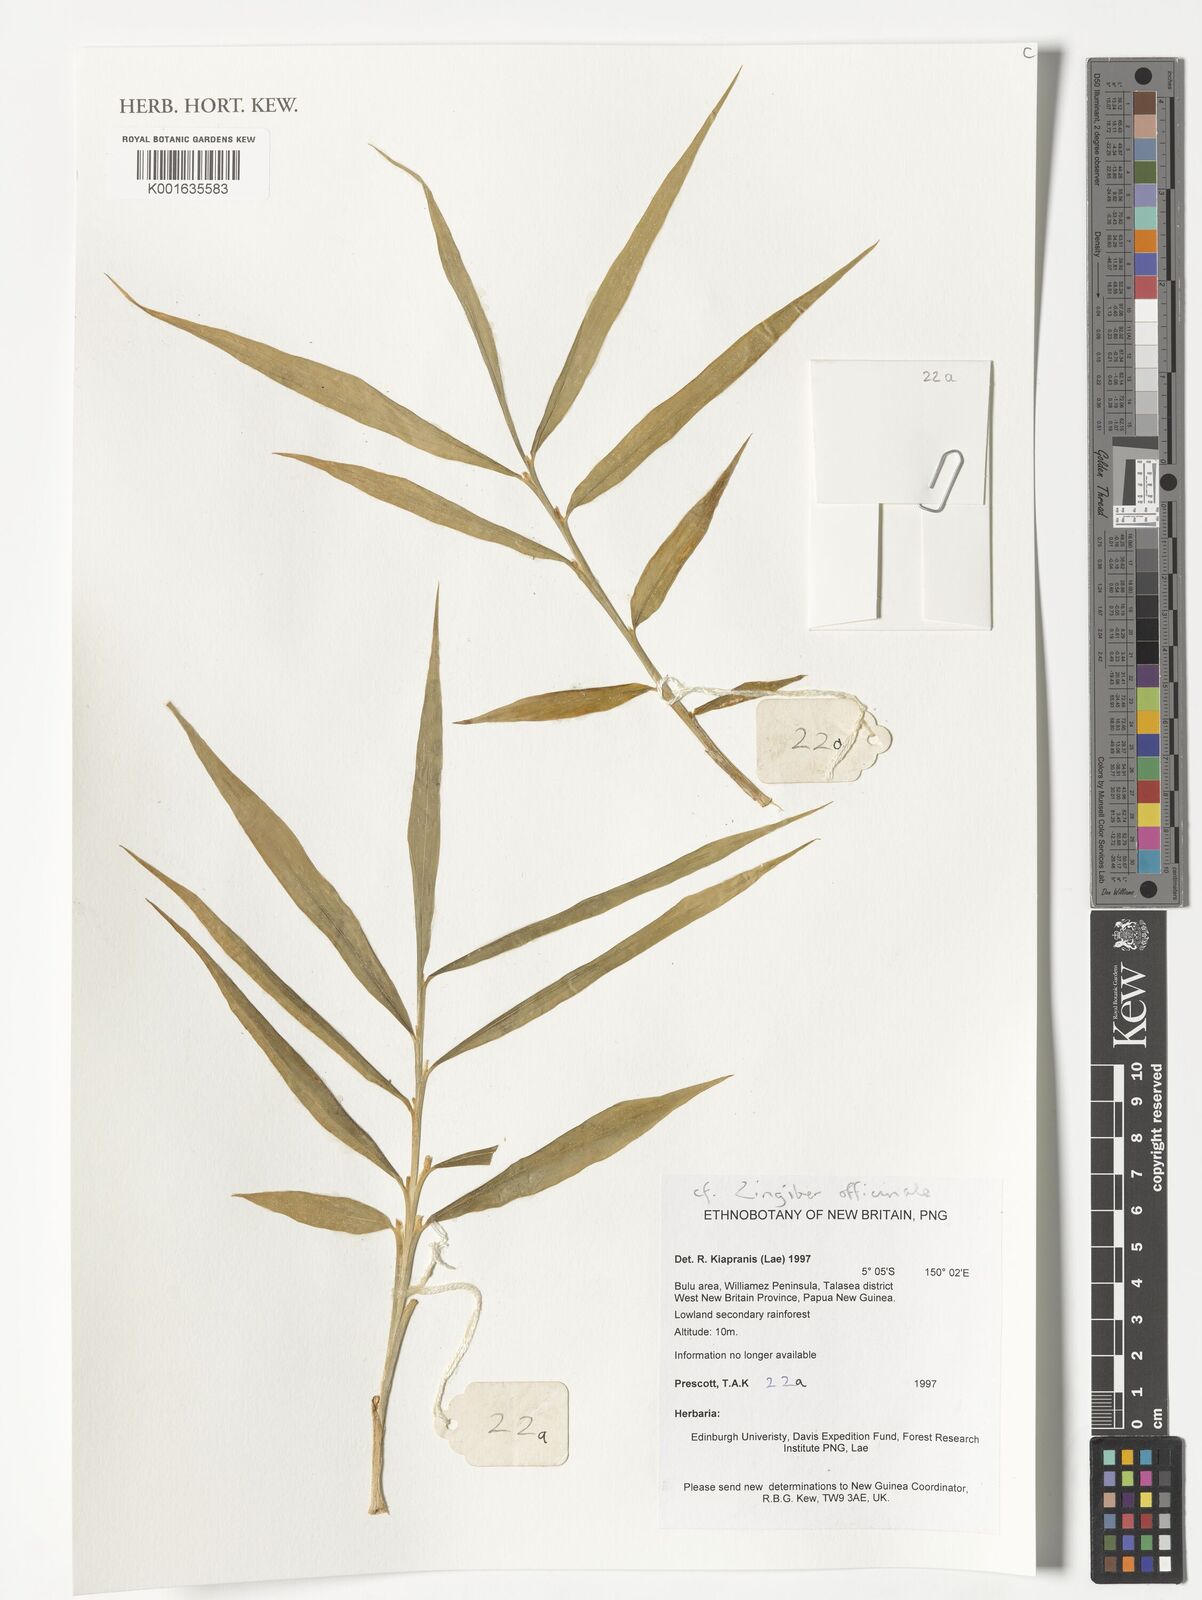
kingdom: Plantae
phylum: Tracheophyta
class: Liliopsida
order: Zingiberales
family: Zingiberaceae
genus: Zingiber
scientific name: Zingiber officinale
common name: Ginger
